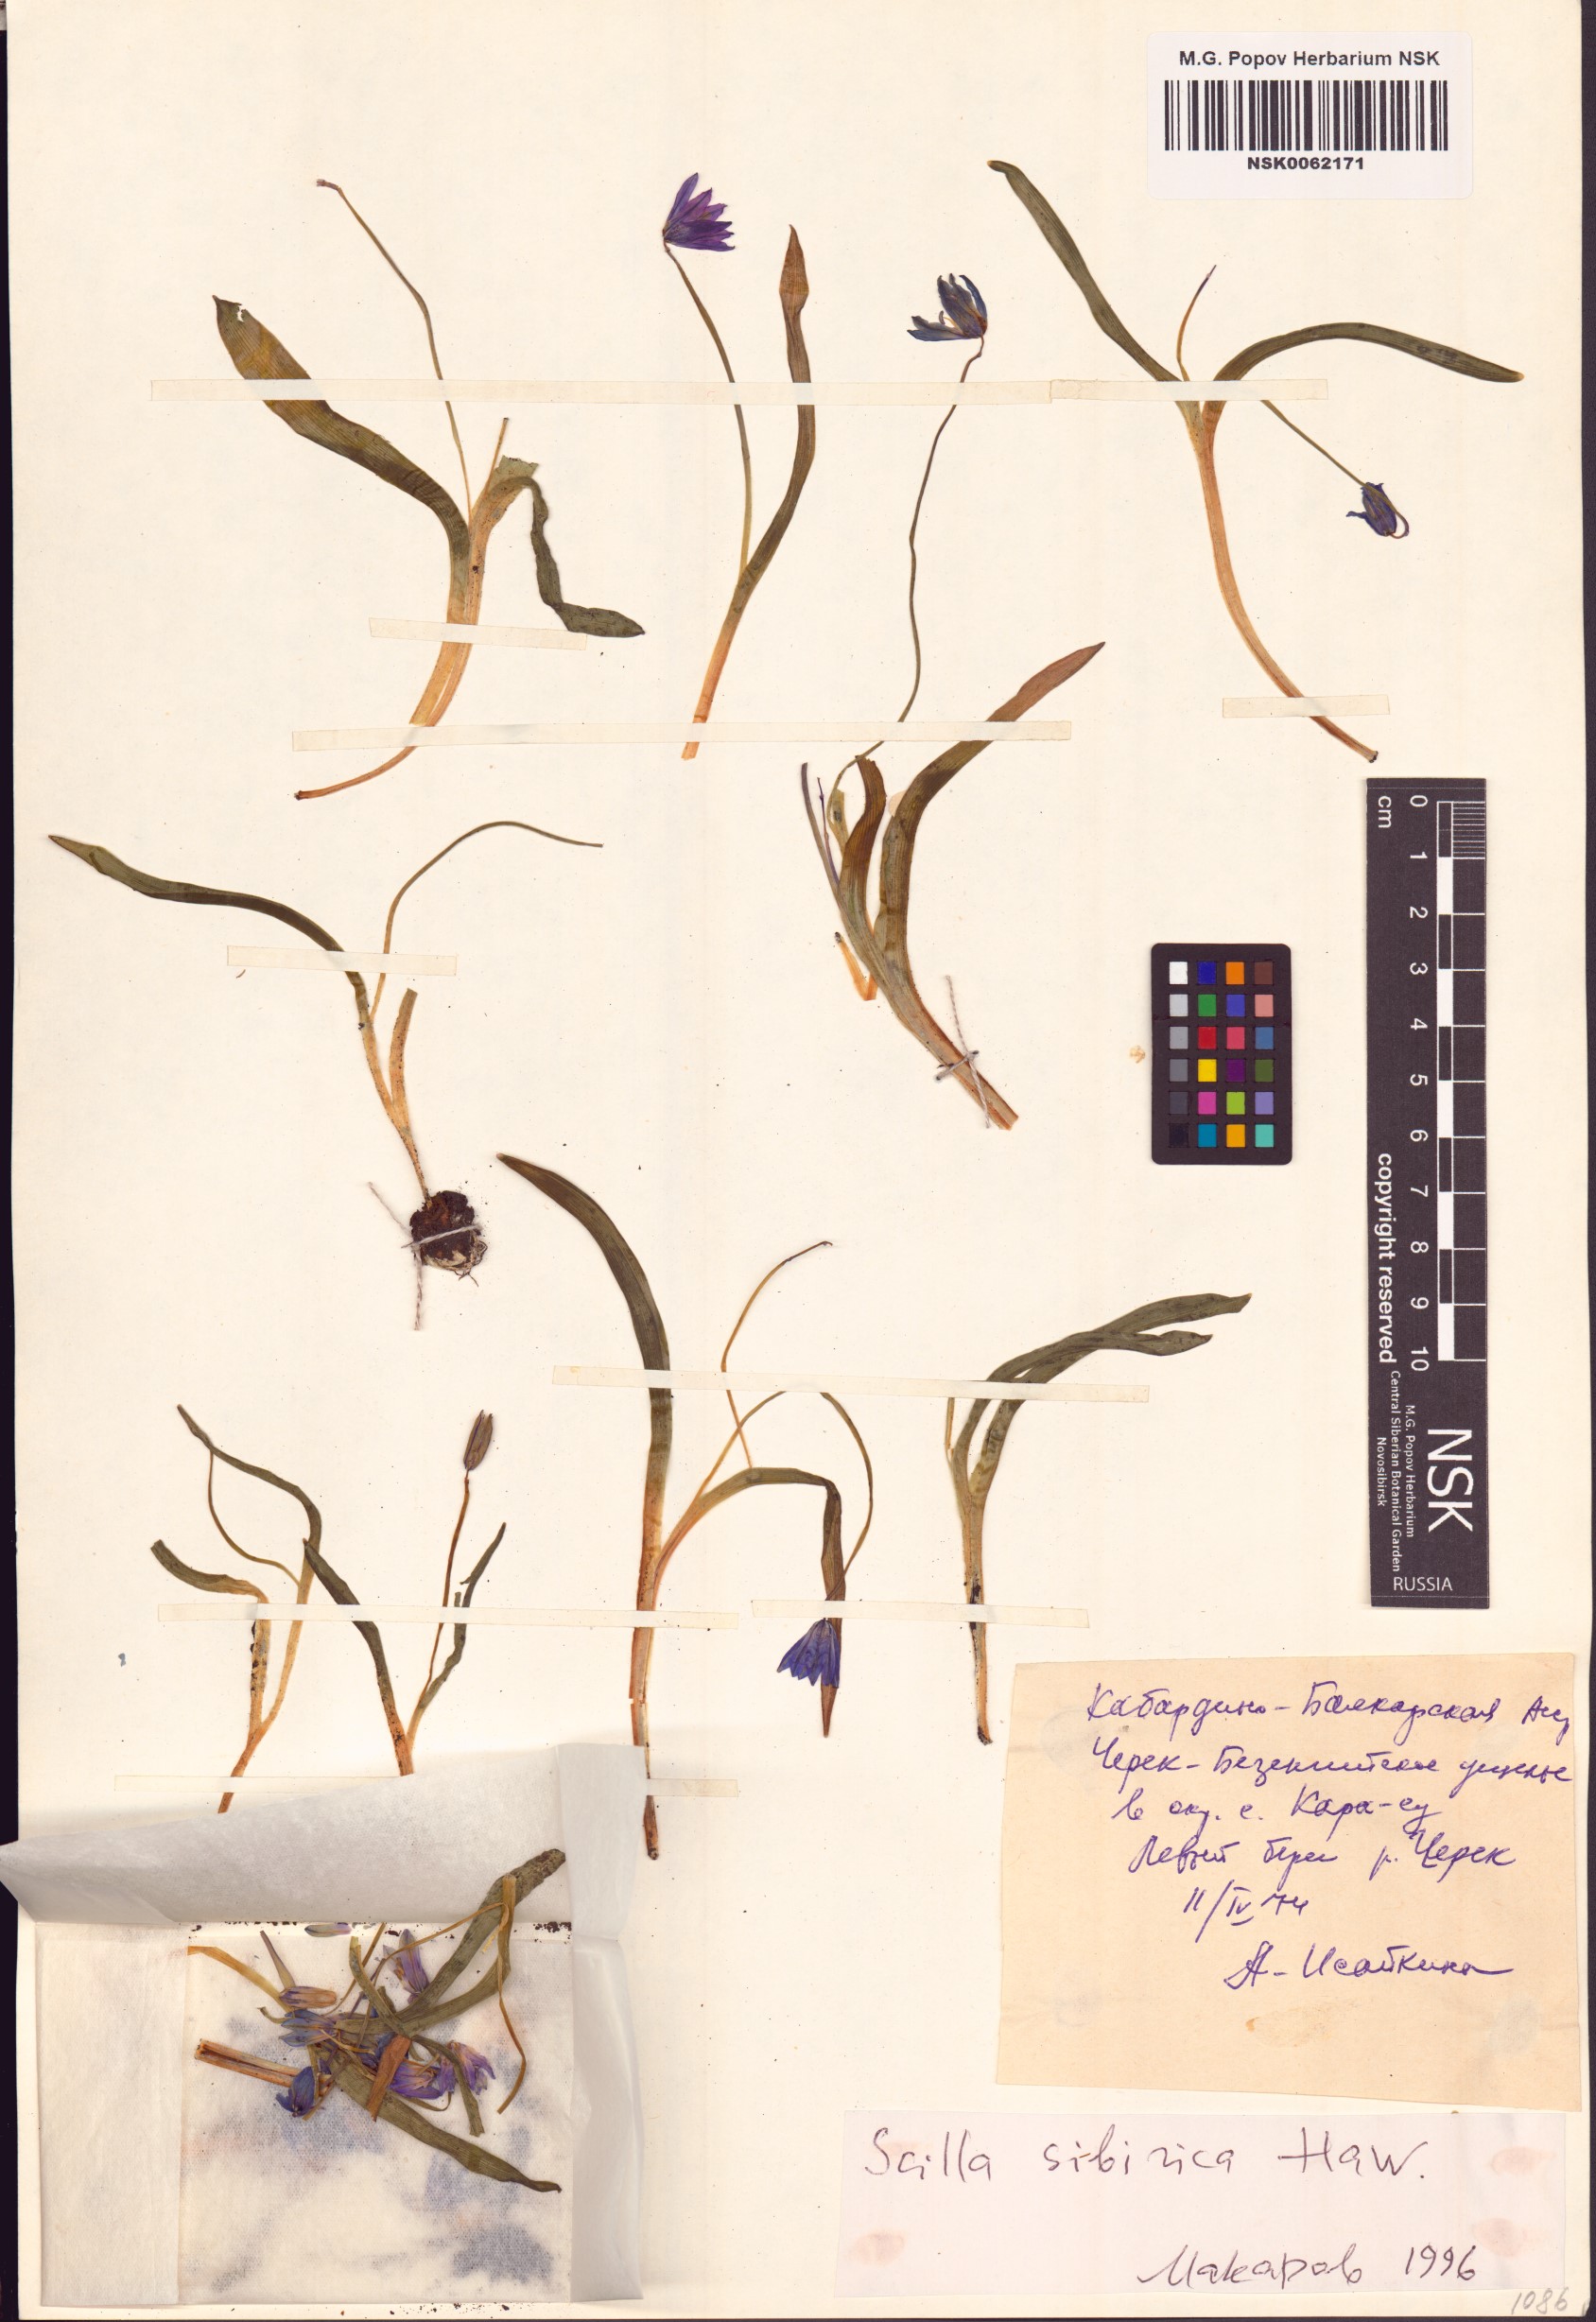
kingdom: Plantae
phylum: Tracheophyta
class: Liliopsida
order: Asparagales
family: Asparagaceae
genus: Scilla
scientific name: Scilla siberica
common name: Siberian squill
